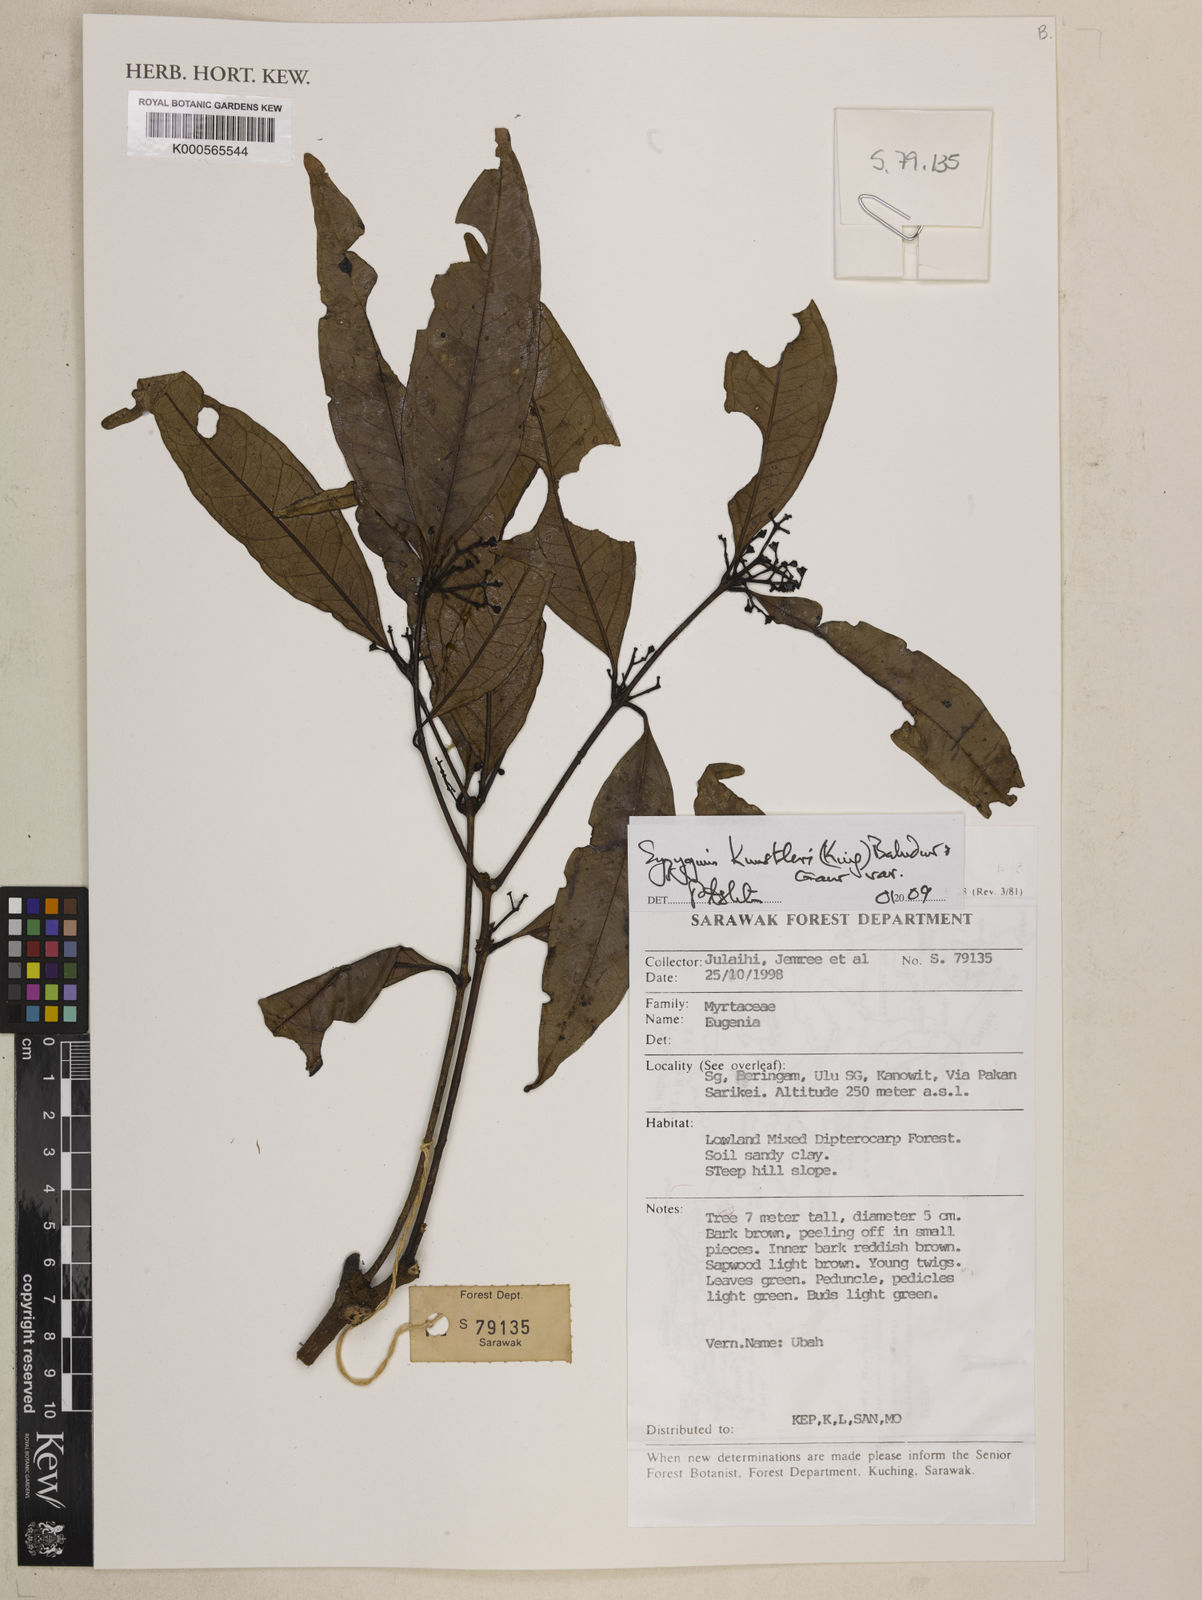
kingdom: Plantae
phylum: Tracheophyta
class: Magnoliopsida
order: Myrtales
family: Myrtaceae
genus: Syzygium
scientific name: Syzygium kunstleri
